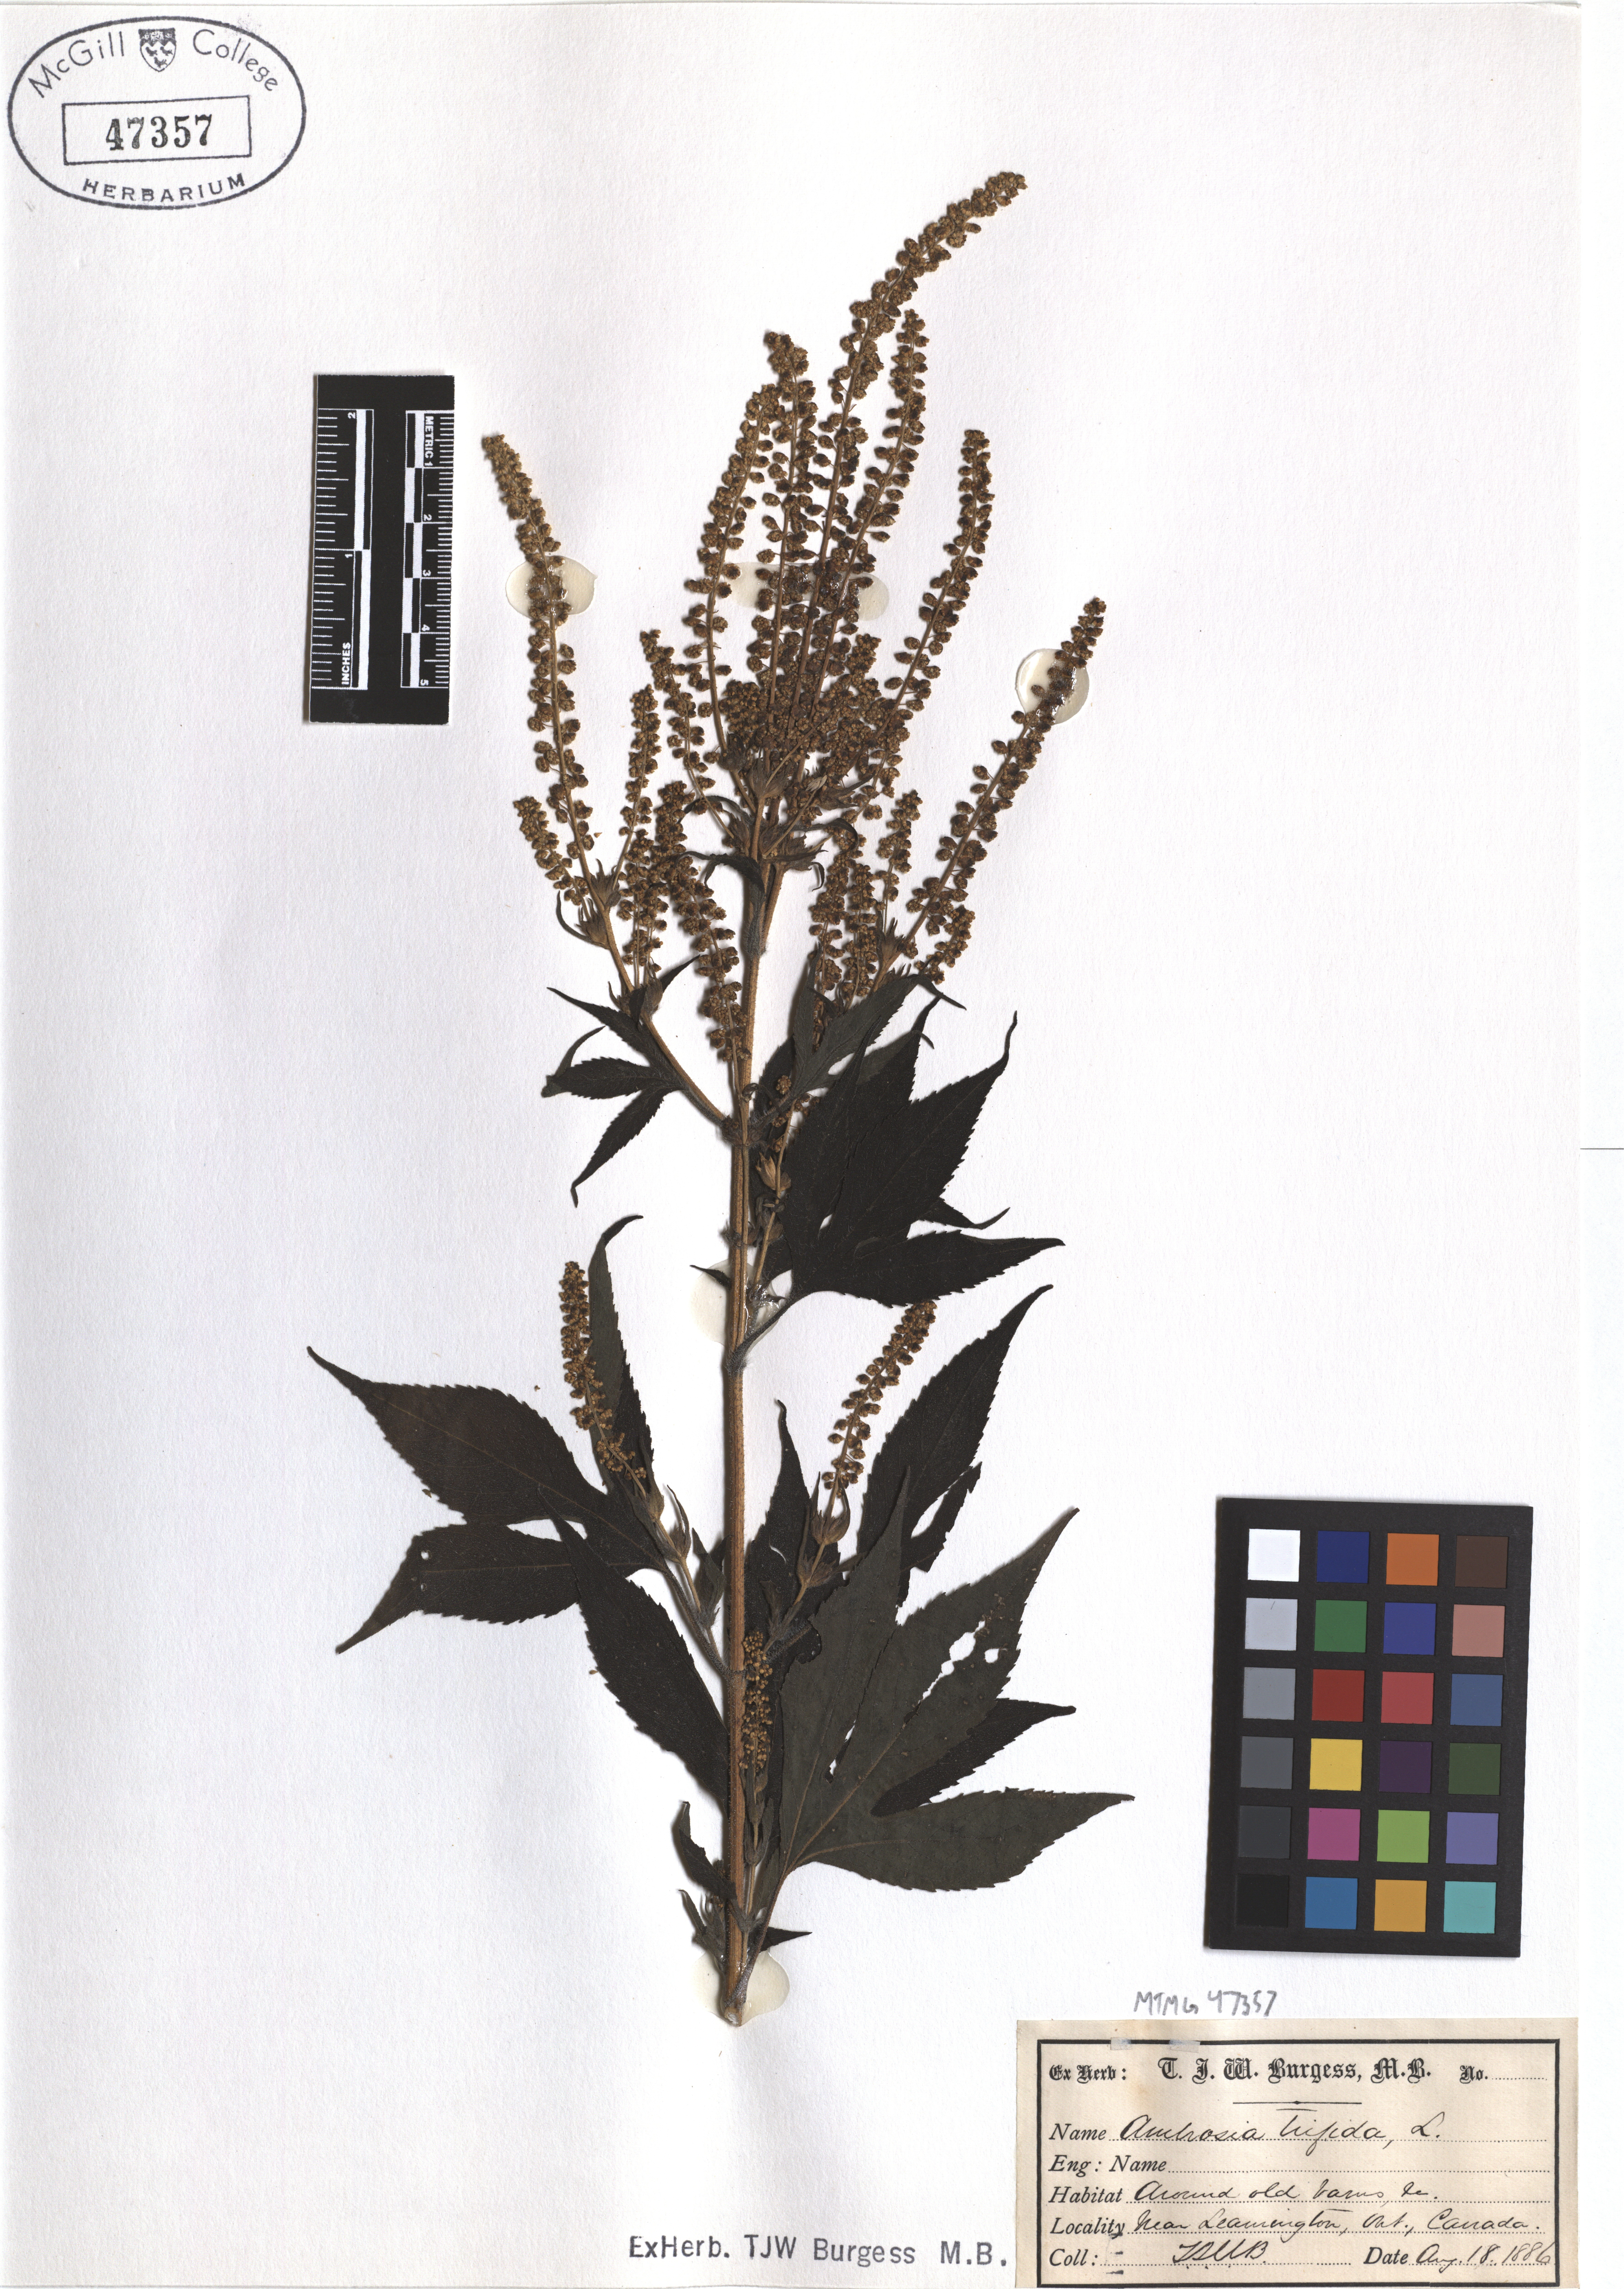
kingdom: Plantae
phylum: Tracheophyta
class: Magnoliopsida
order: Asterales
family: Asteraceae
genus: Ambrosia
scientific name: Ambrosia trifida
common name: Giant ragweed
